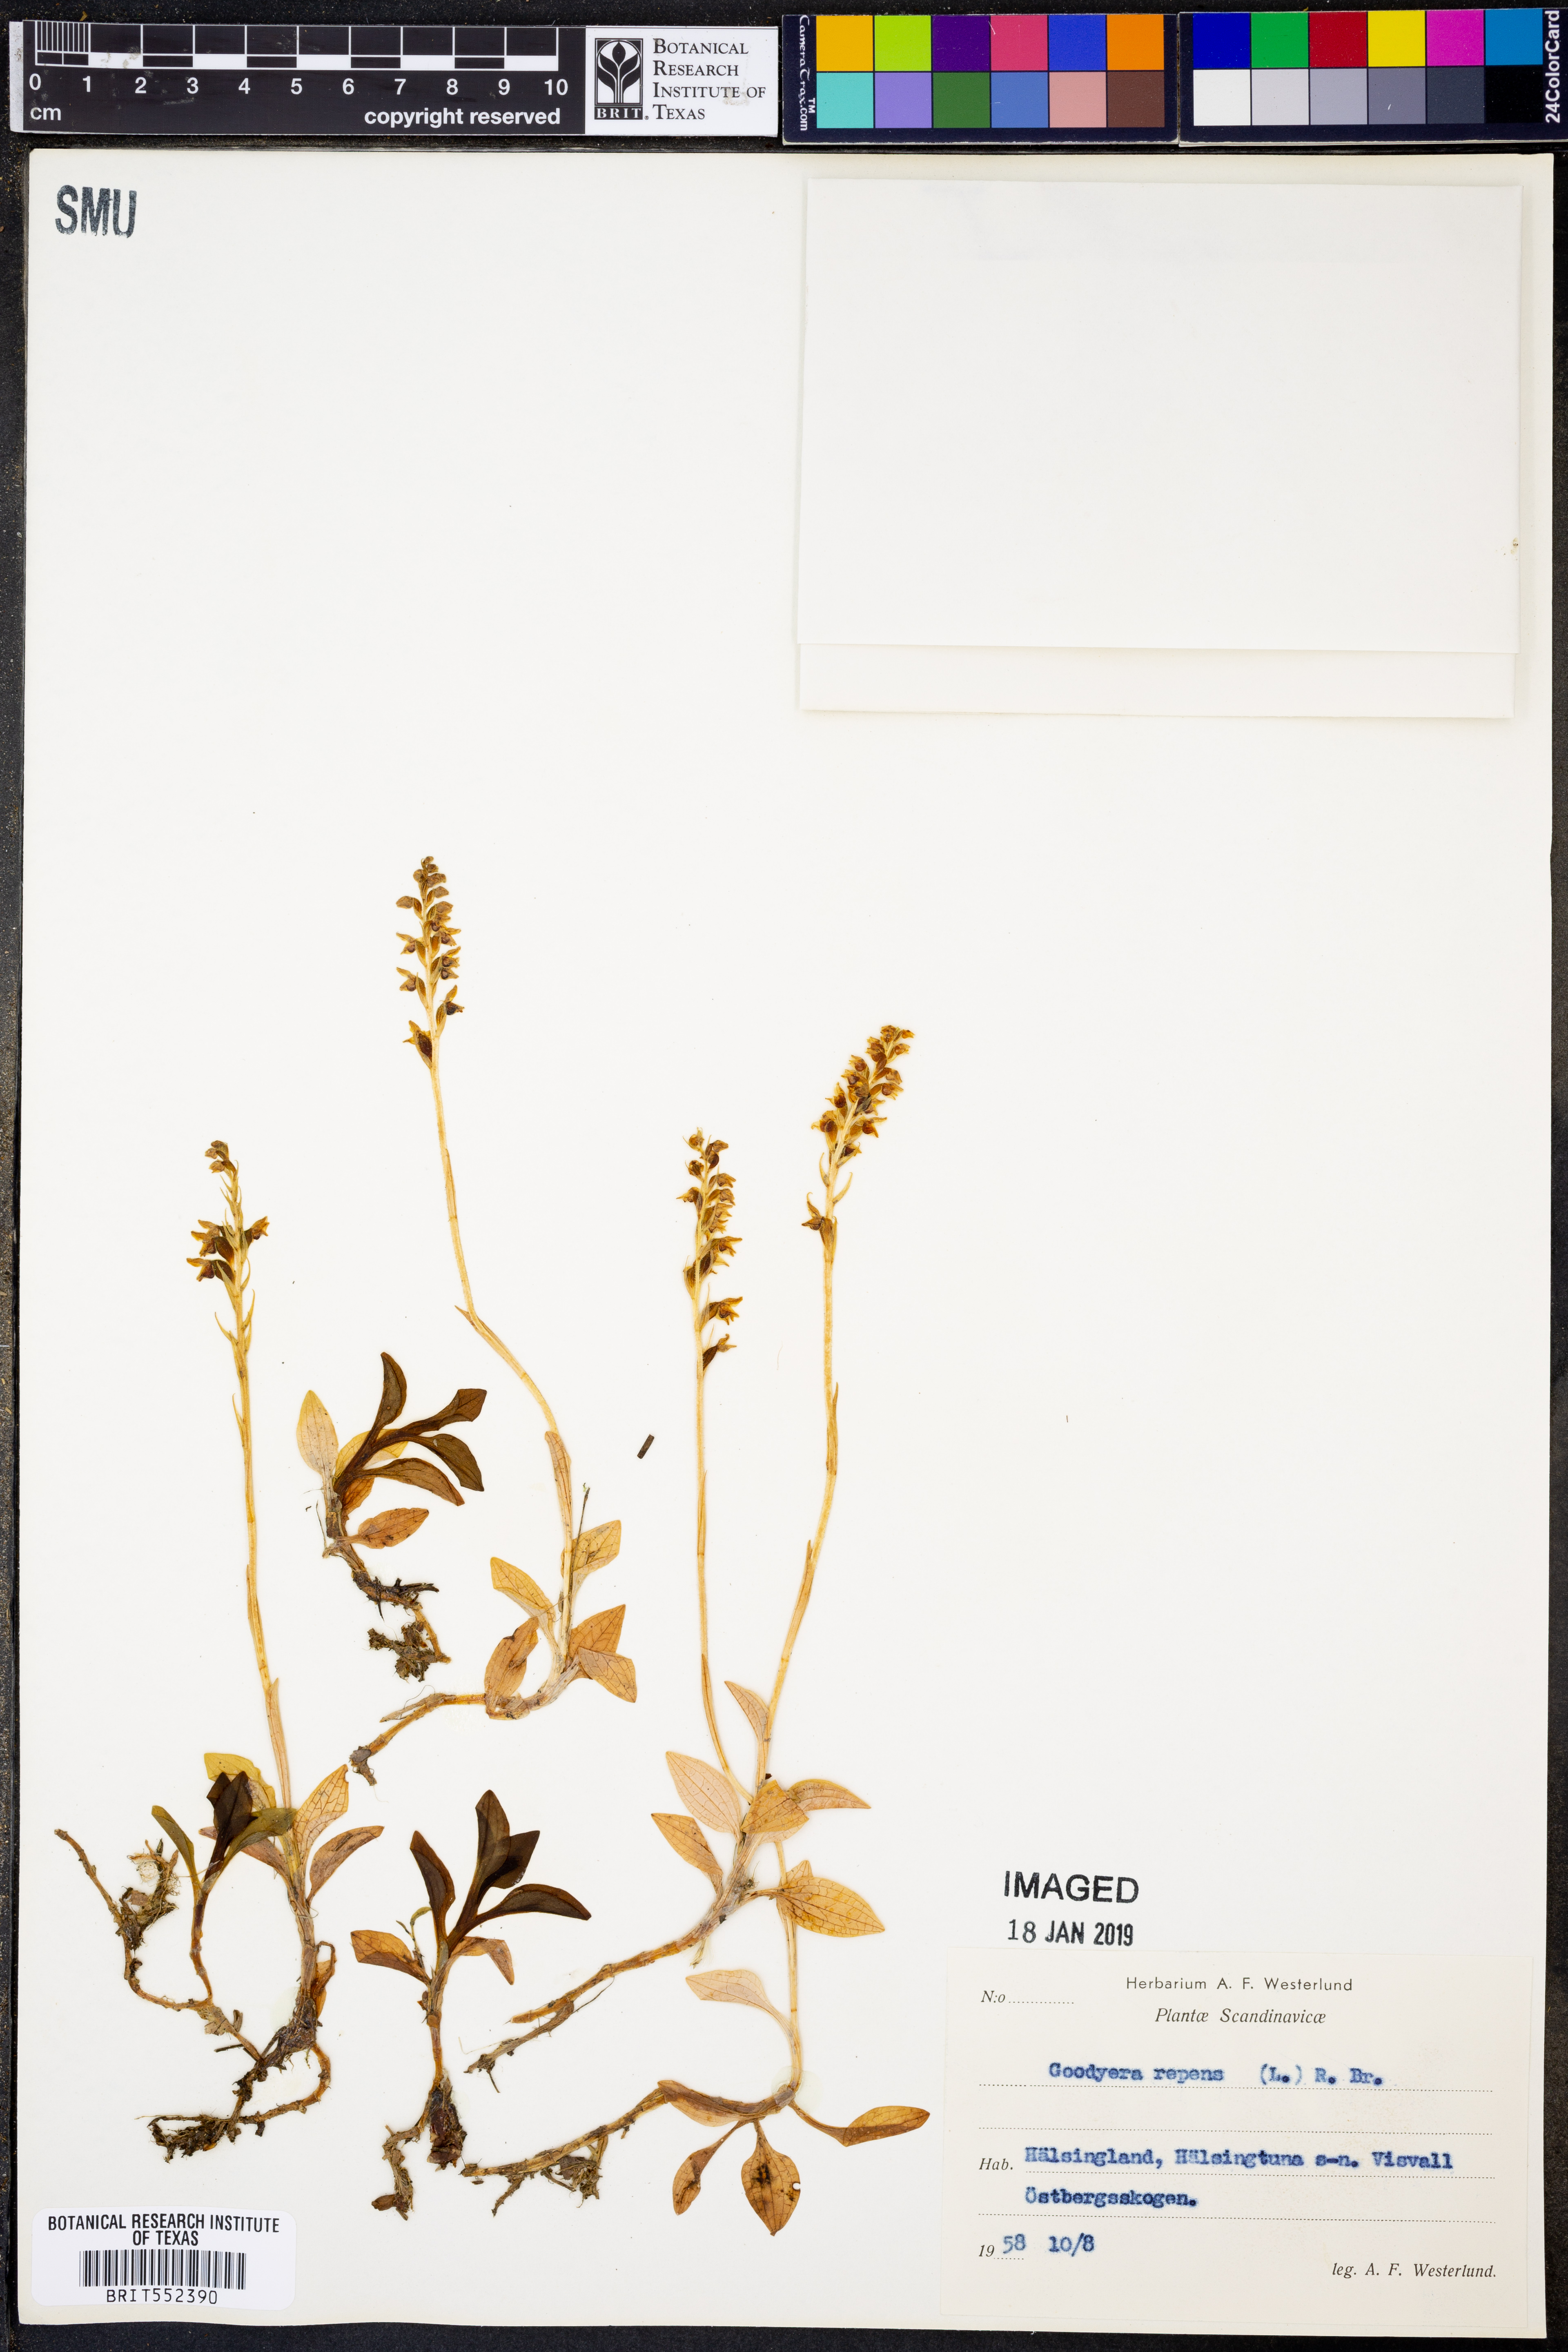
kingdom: Plantae
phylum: Tracheophyta
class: Liliopsida
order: Asparagales
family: Orchidaceae
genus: Goodyera
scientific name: Goodyera repens
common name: Creeping lady's-tresses
